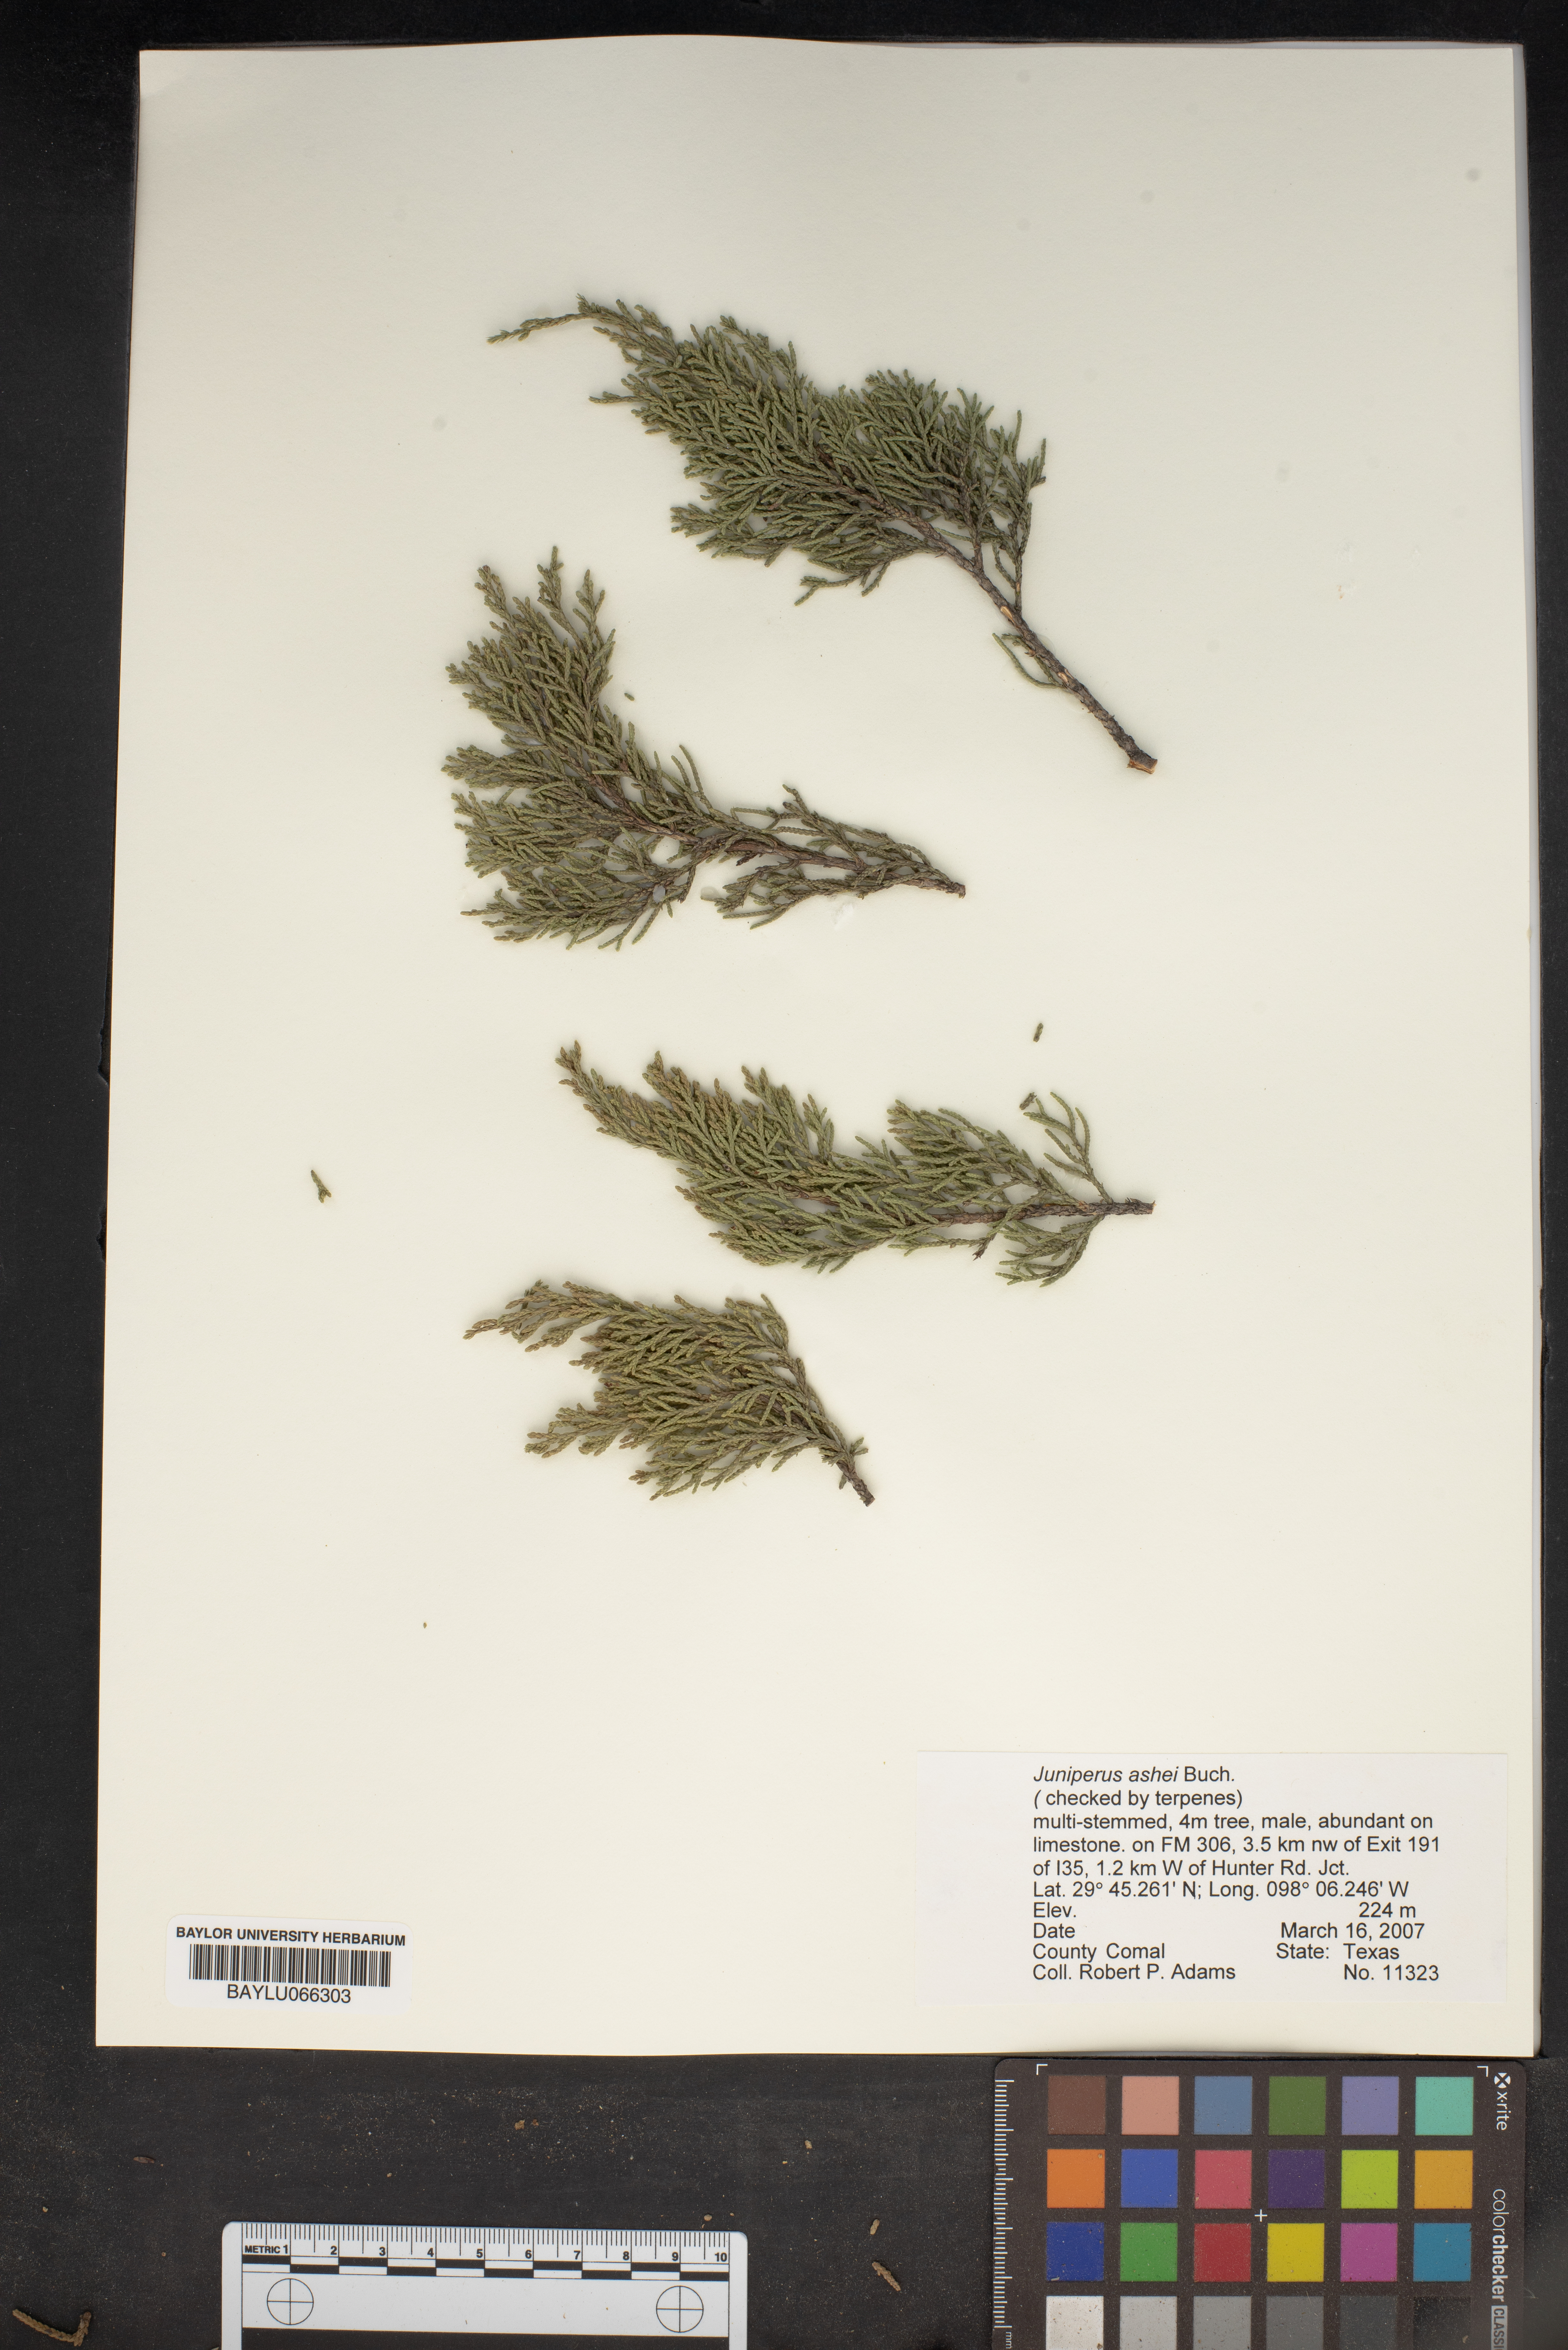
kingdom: Plantae
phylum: Tracheophyta
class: Pinopsida
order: Pinales
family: Cupressaceae
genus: Juniperus
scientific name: Juniperus ashei
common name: Mexican juniper
